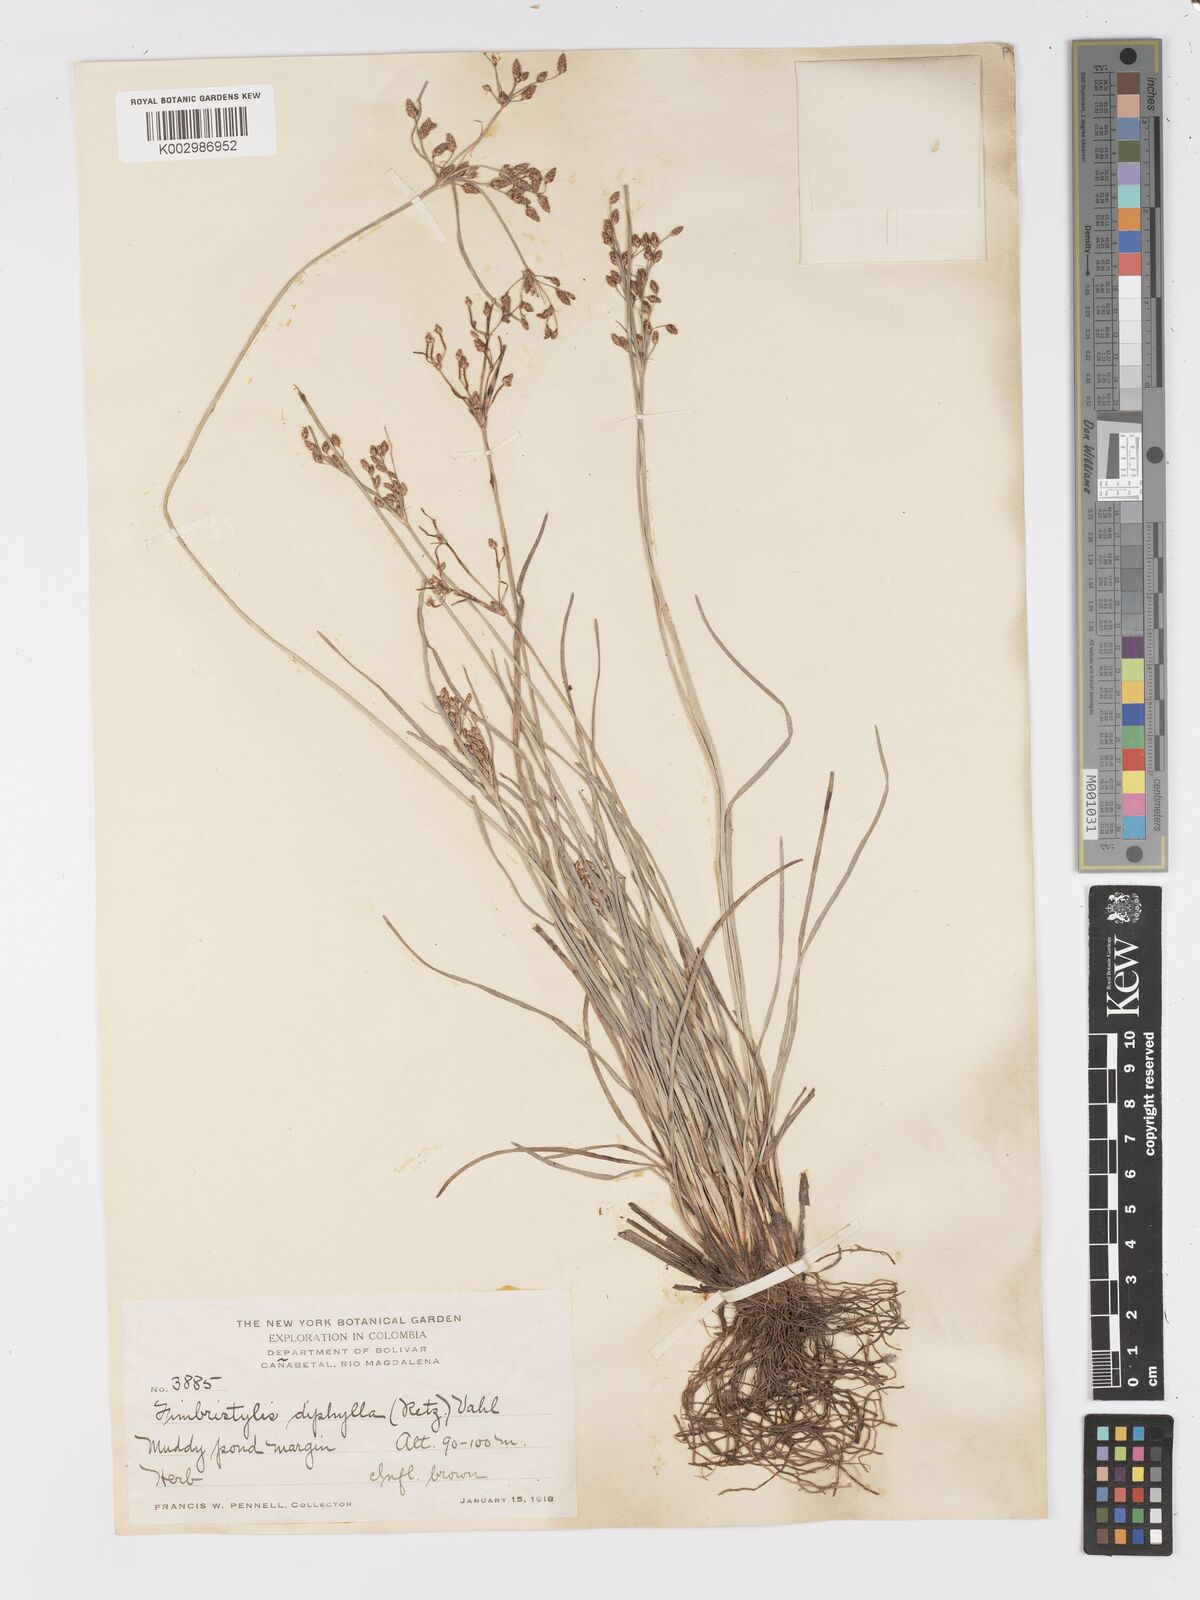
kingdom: Plantae
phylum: Tracheophyta
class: Liliopsida
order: Poales
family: Cyperaceae
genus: Fimbristylis
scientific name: Fimbristylis dichotoma
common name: Forked fimbry
